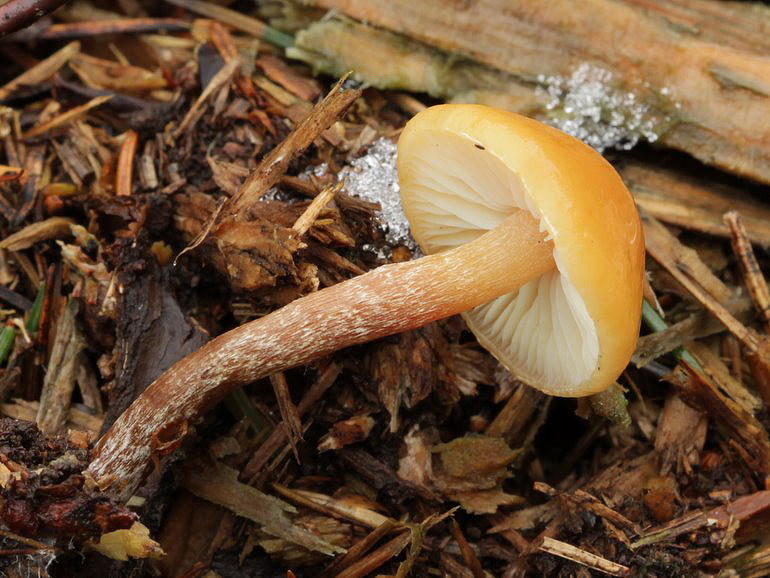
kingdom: Fungi
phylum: Basidiomycota
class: Agaricomycetes
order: Agaricales
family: Strophariaceae
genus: Hypholoma
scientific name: Hypholoma marginatum
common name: enlig svovlhat
